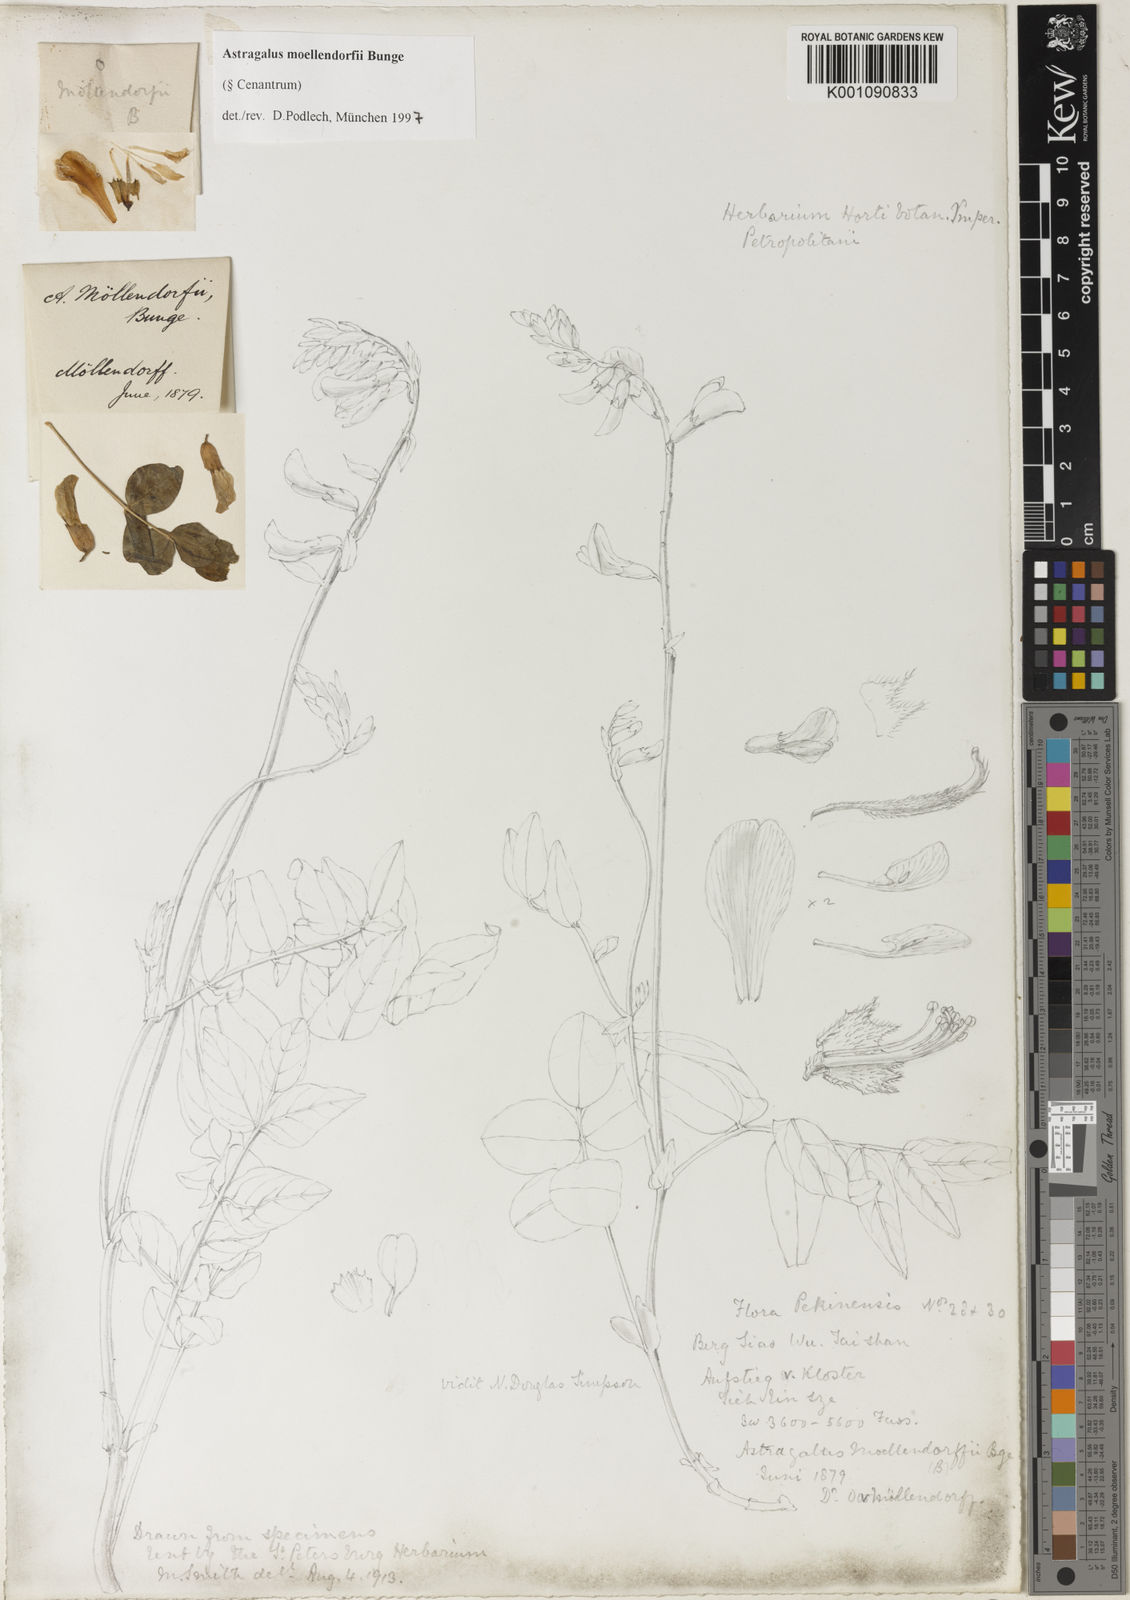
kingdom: Plantae
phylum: Tracheophyta
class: Magnoliopsida
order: Fabales
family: Fabaceae
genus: Astragalus
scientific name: Astragalus
